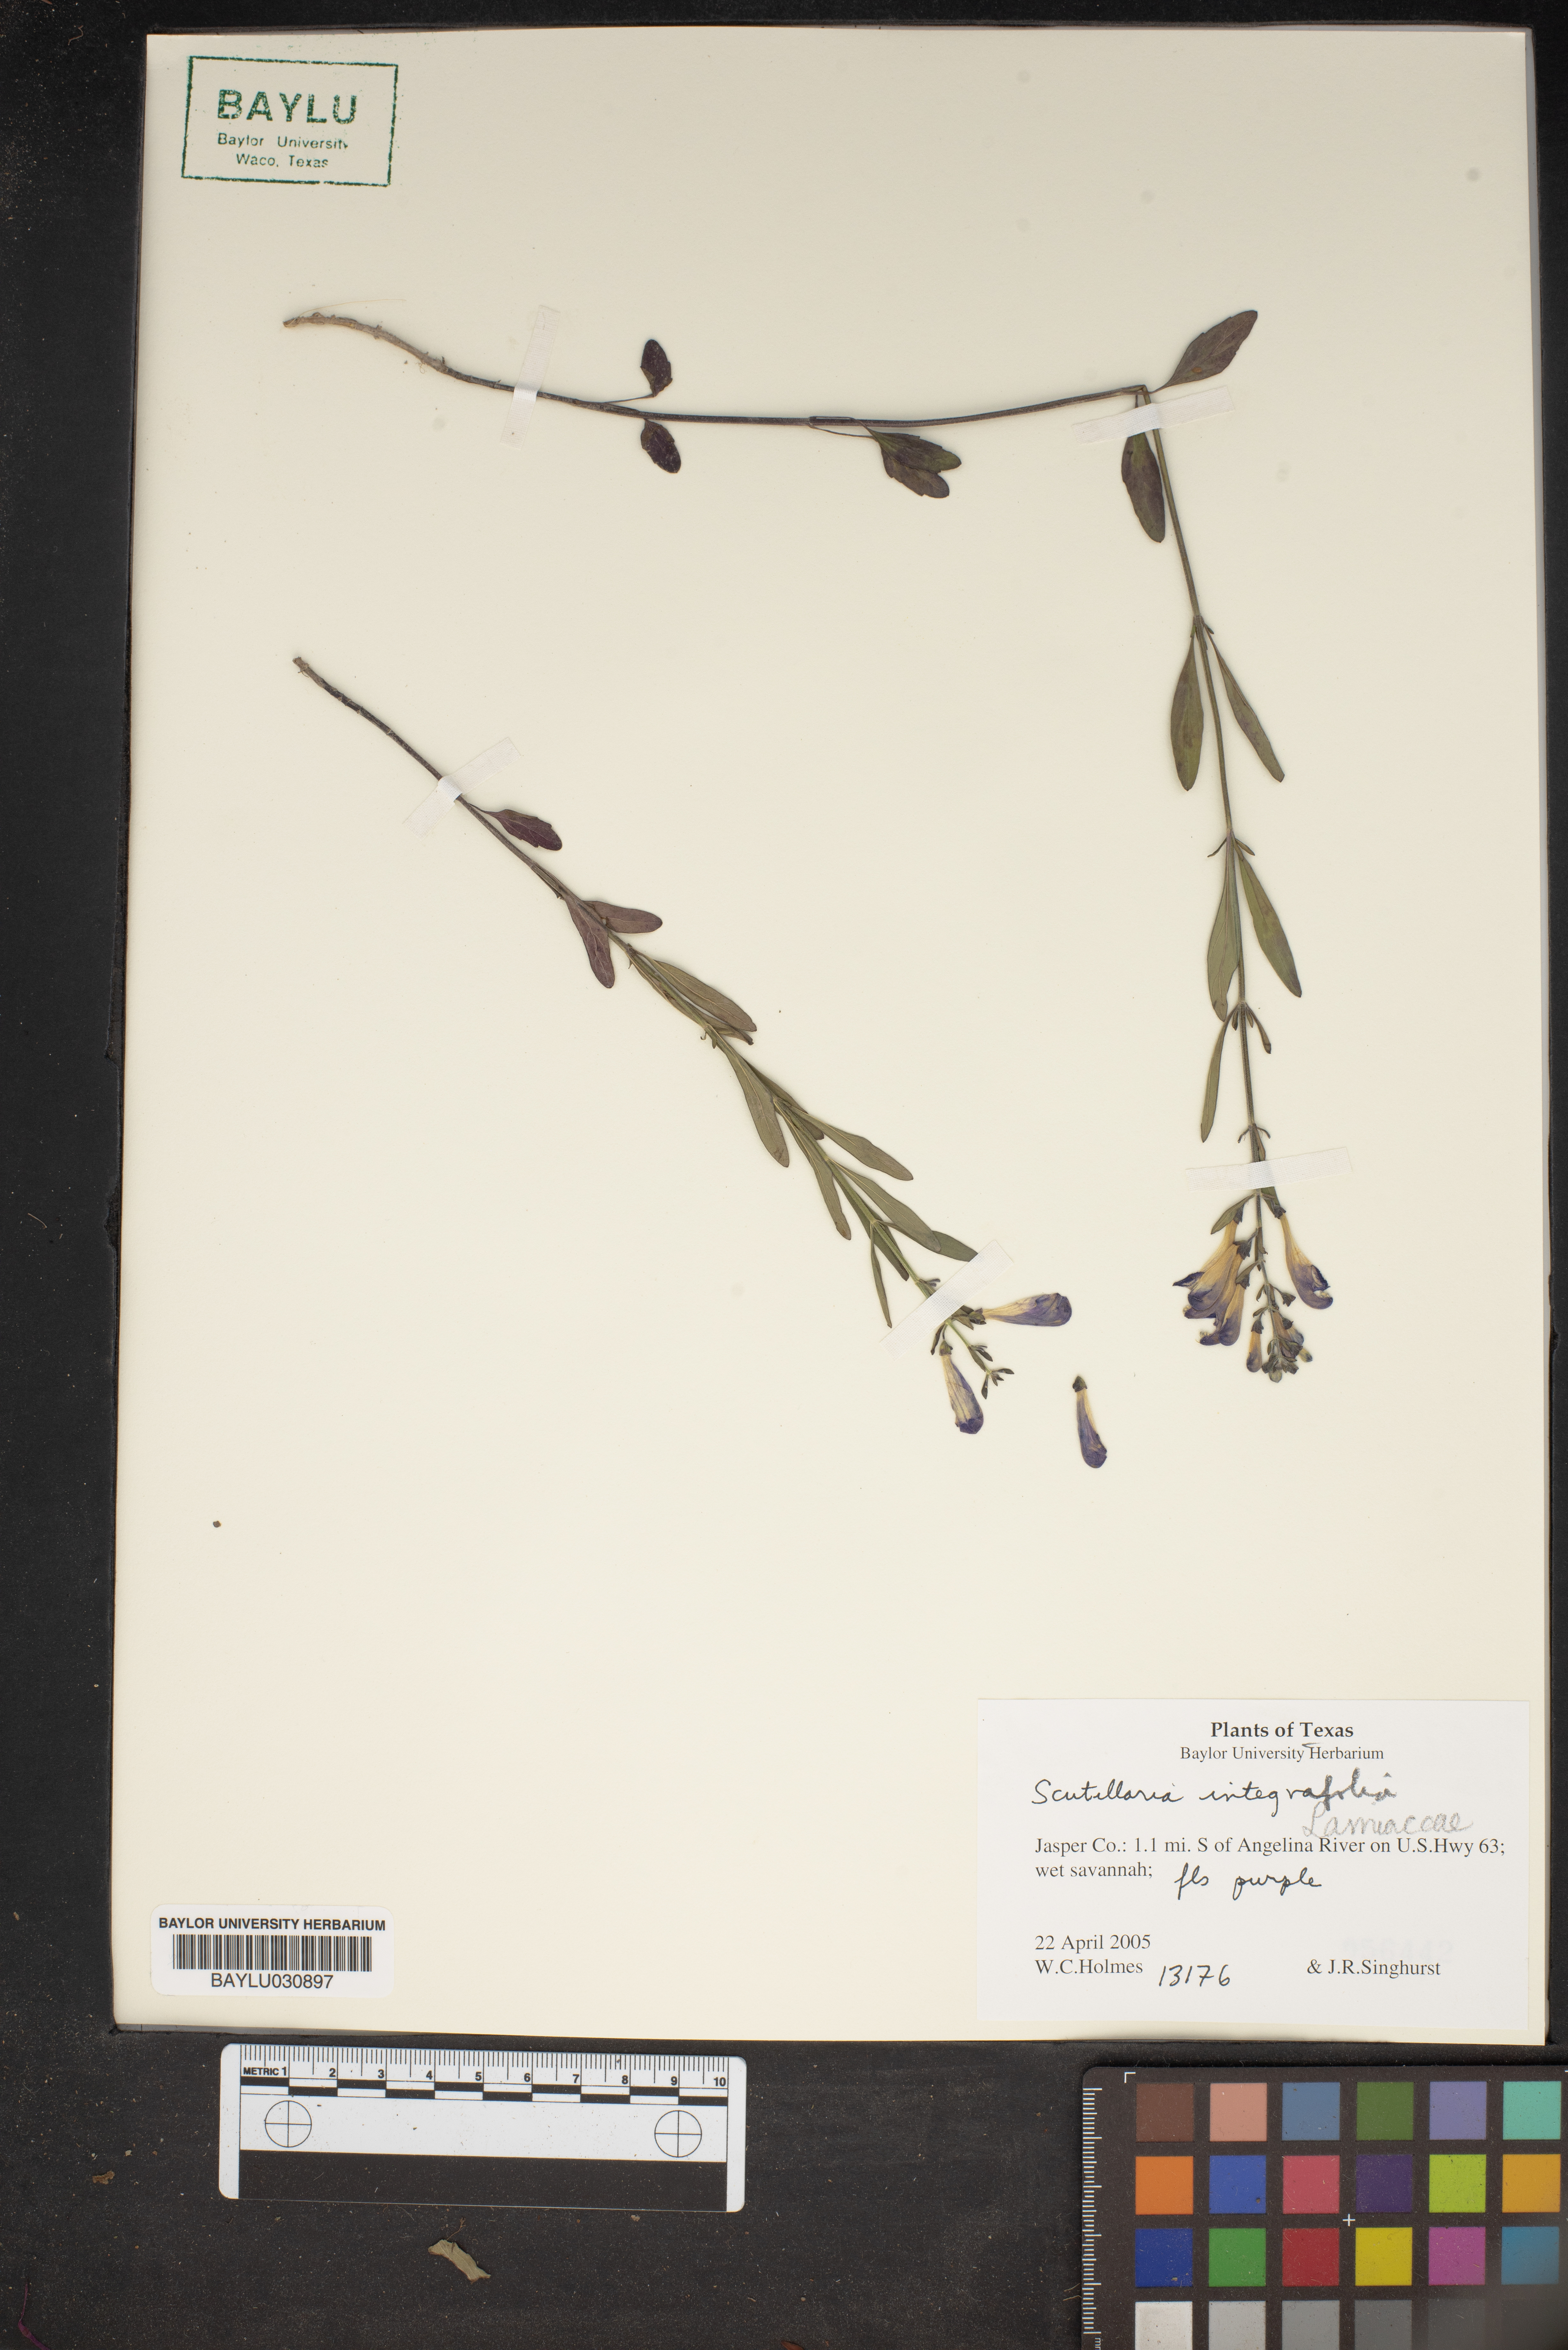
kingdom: Plantae
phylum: Tracheophyta
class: Magnoliopsida
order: Lamiales
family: Lamiaceae
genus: Scutellaria
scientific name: Scutellaria integrifolia
